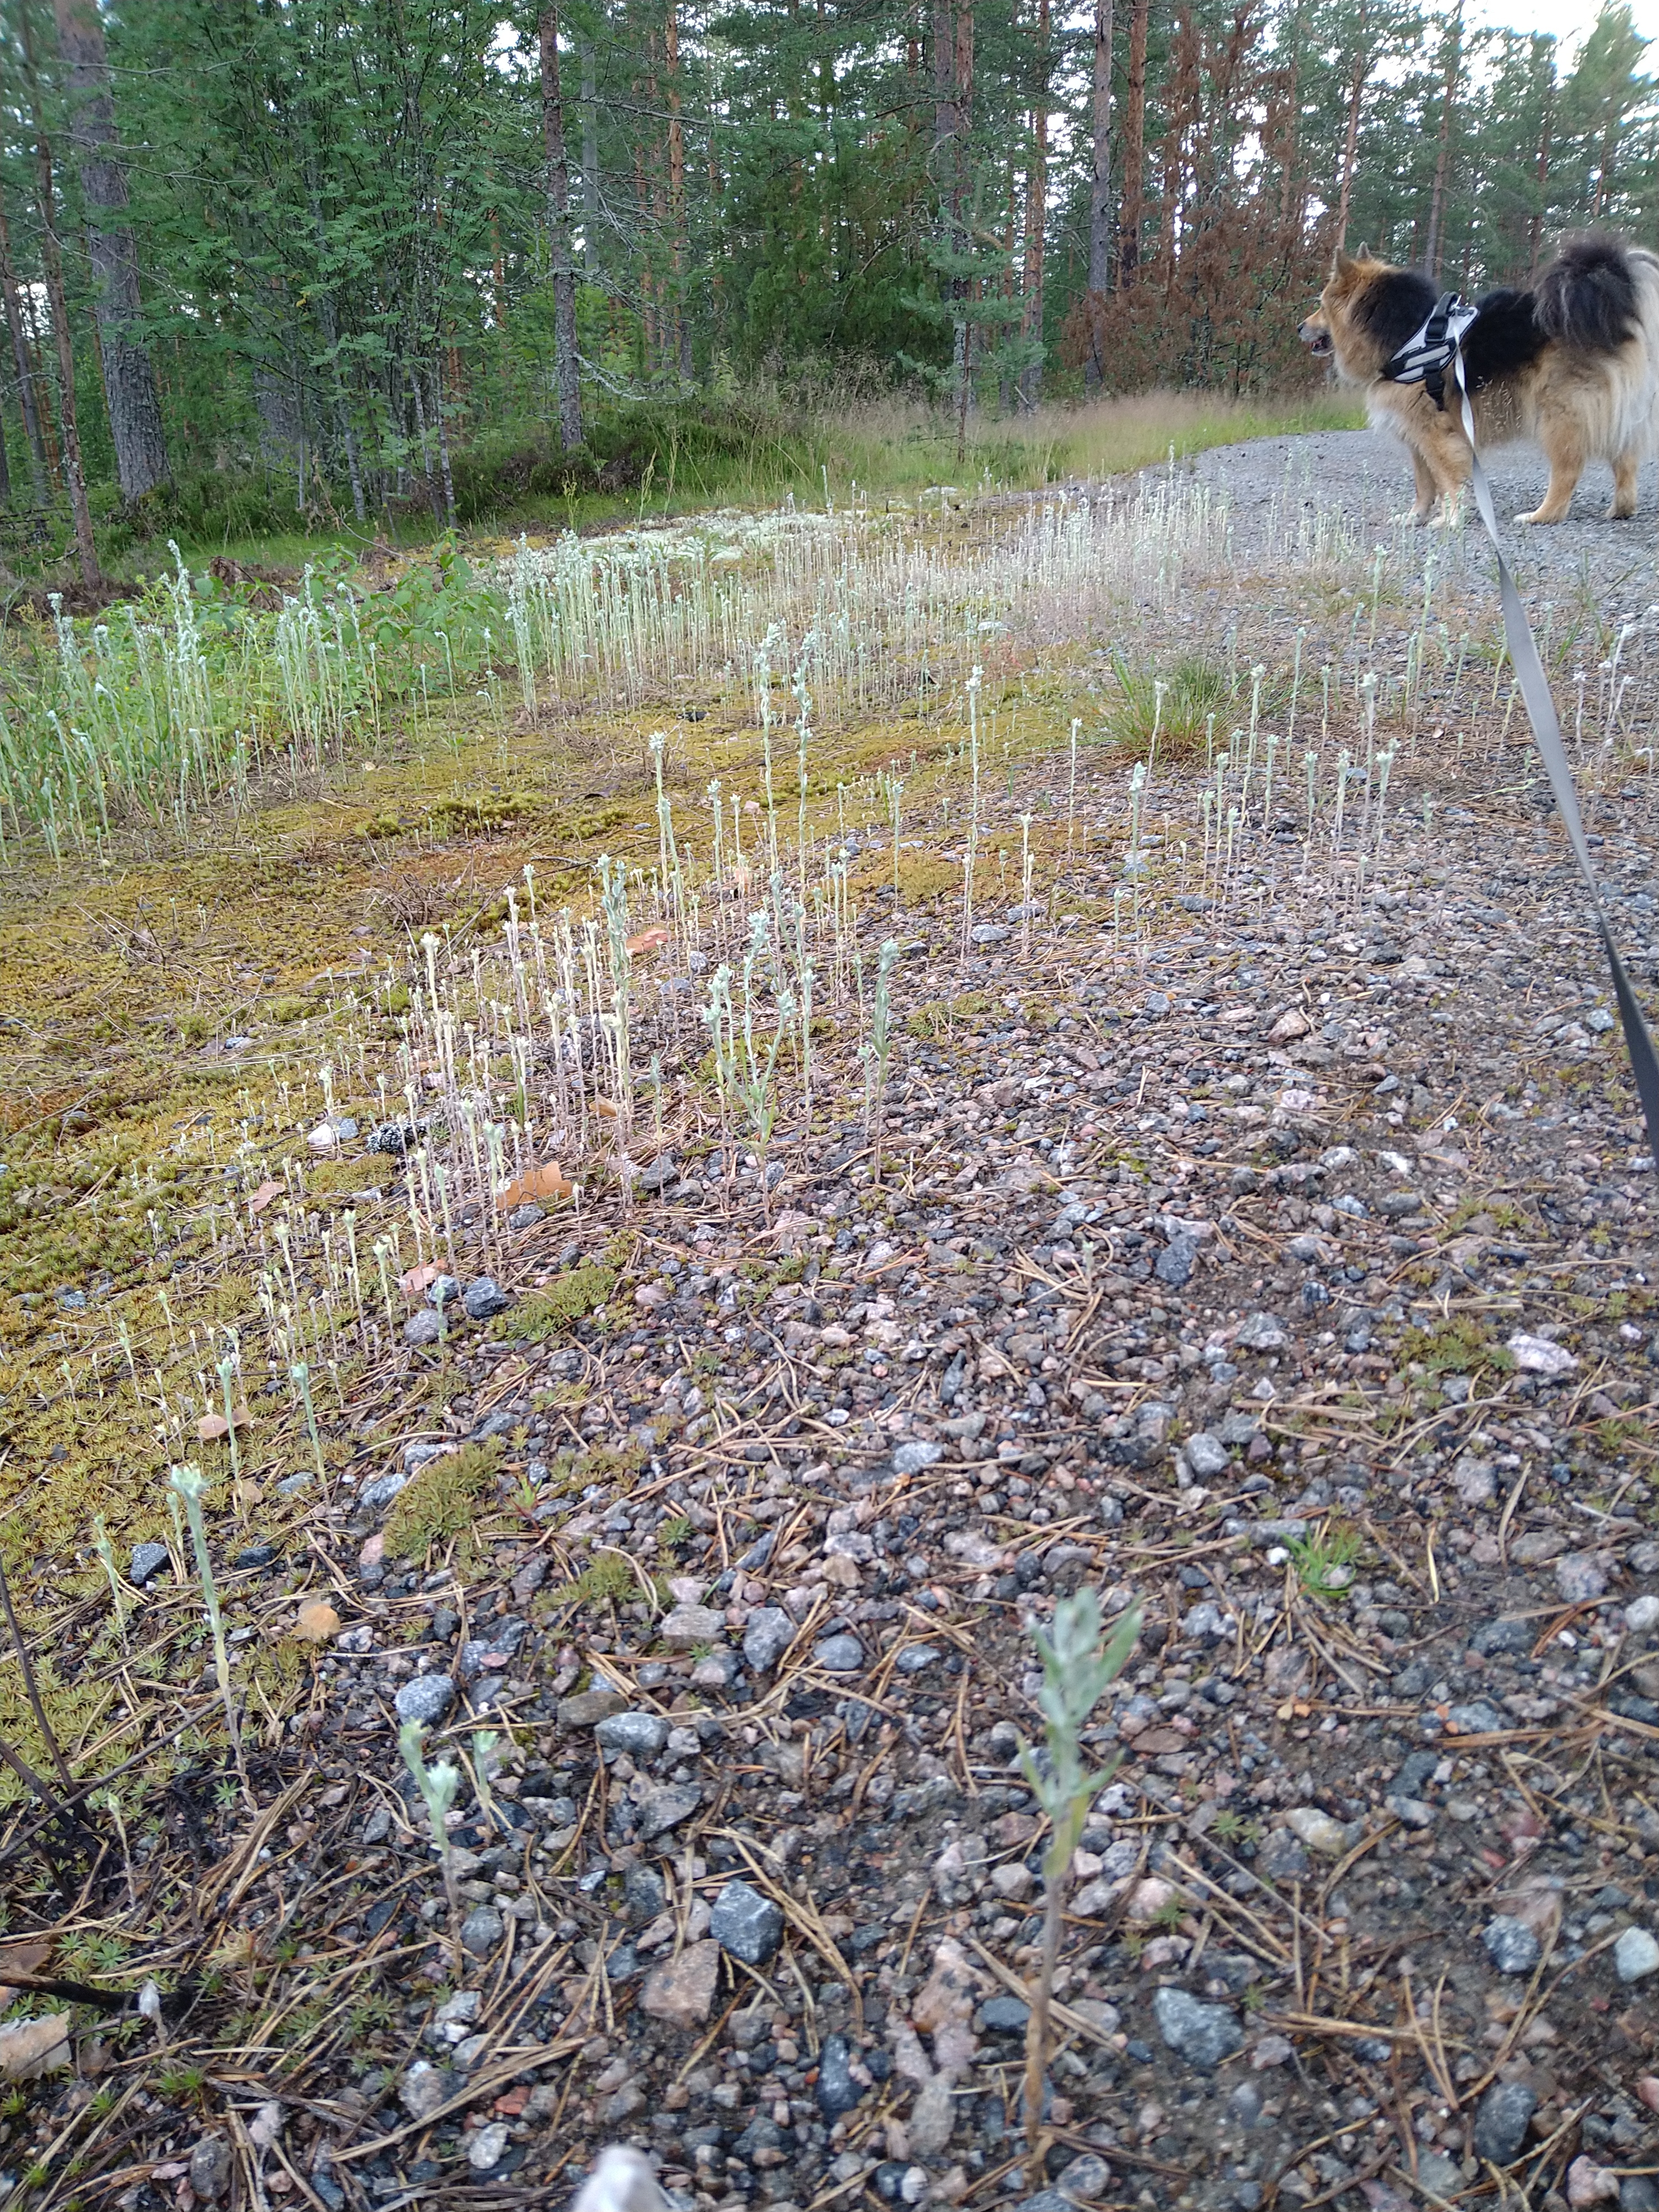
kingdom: Plantae
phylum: Tracheophyta
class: Magnoliopsida
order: Asterales
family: Asteraceae
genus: Filago
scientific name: Filago arvensis
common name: Field cudweed
